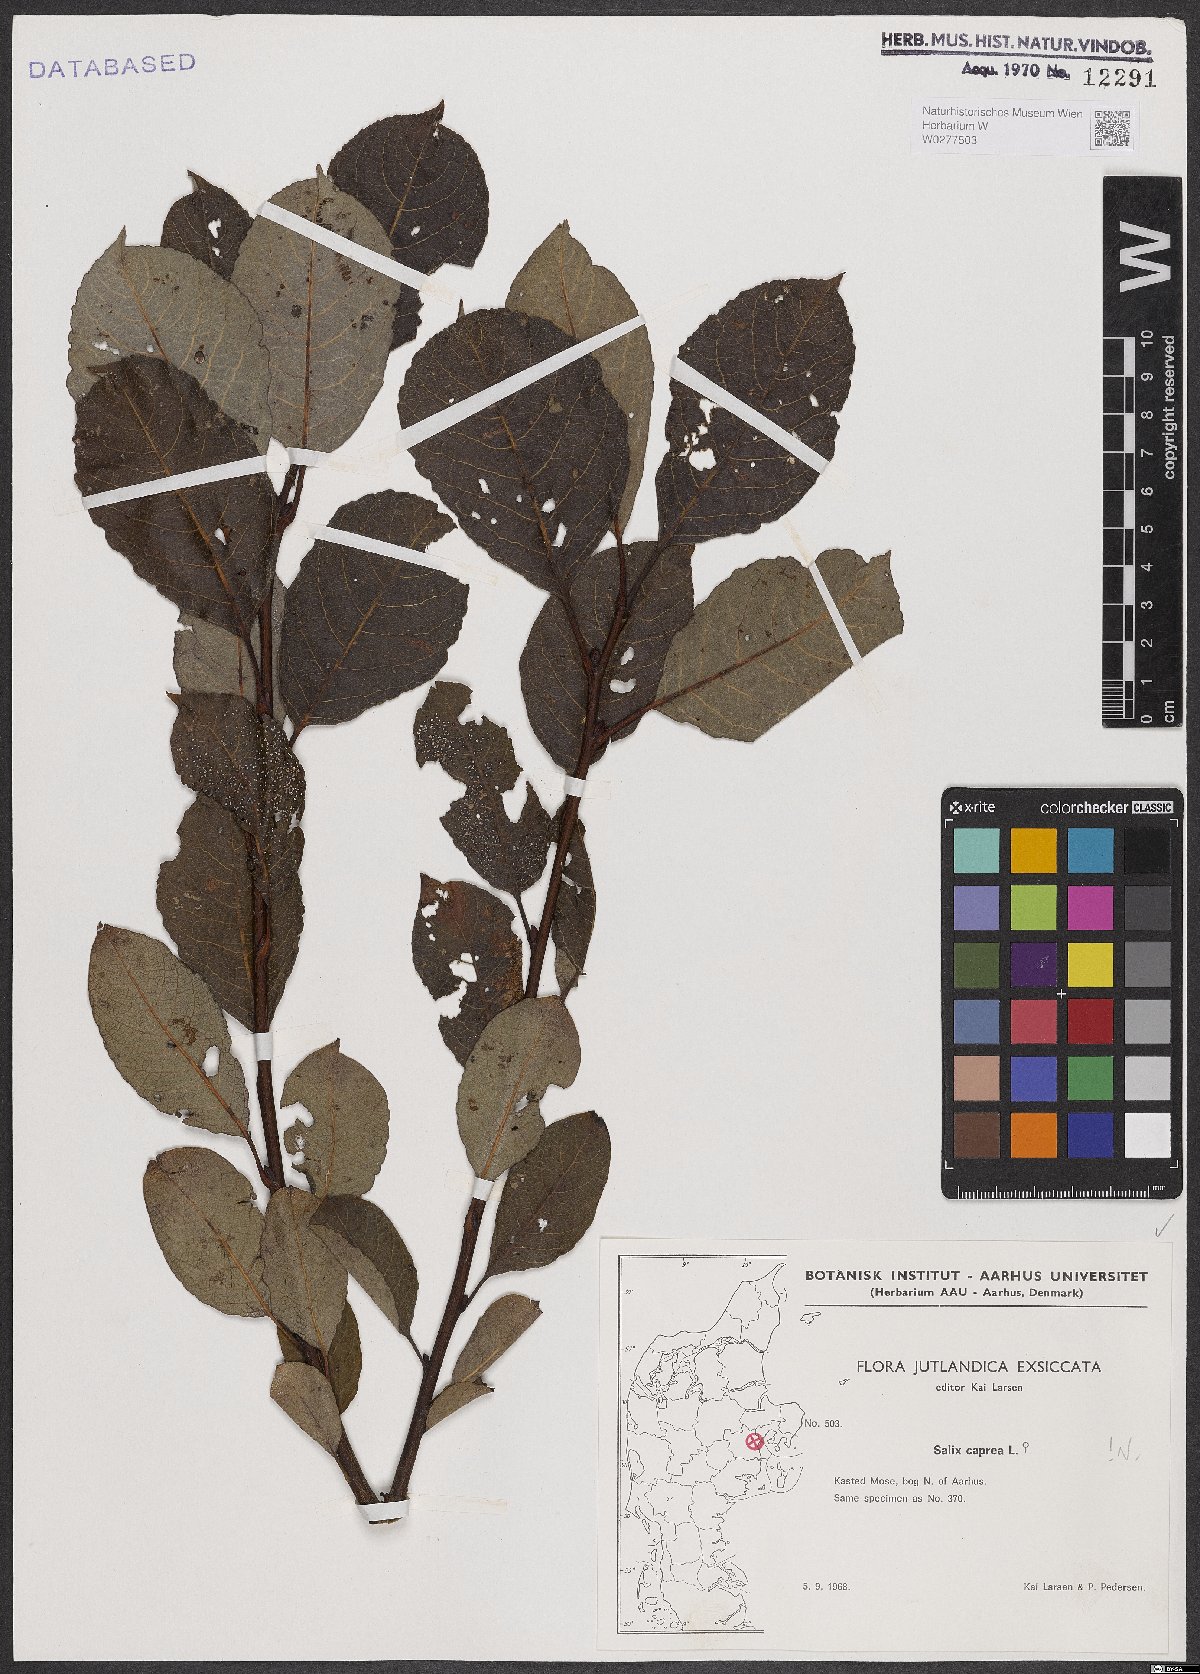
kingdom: Plantae
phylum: Tracheophyta
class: Magnoliopsida
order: Malpighiales
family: Salicaceae
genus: Salix
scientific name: Salix caprea
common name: Goat willow
